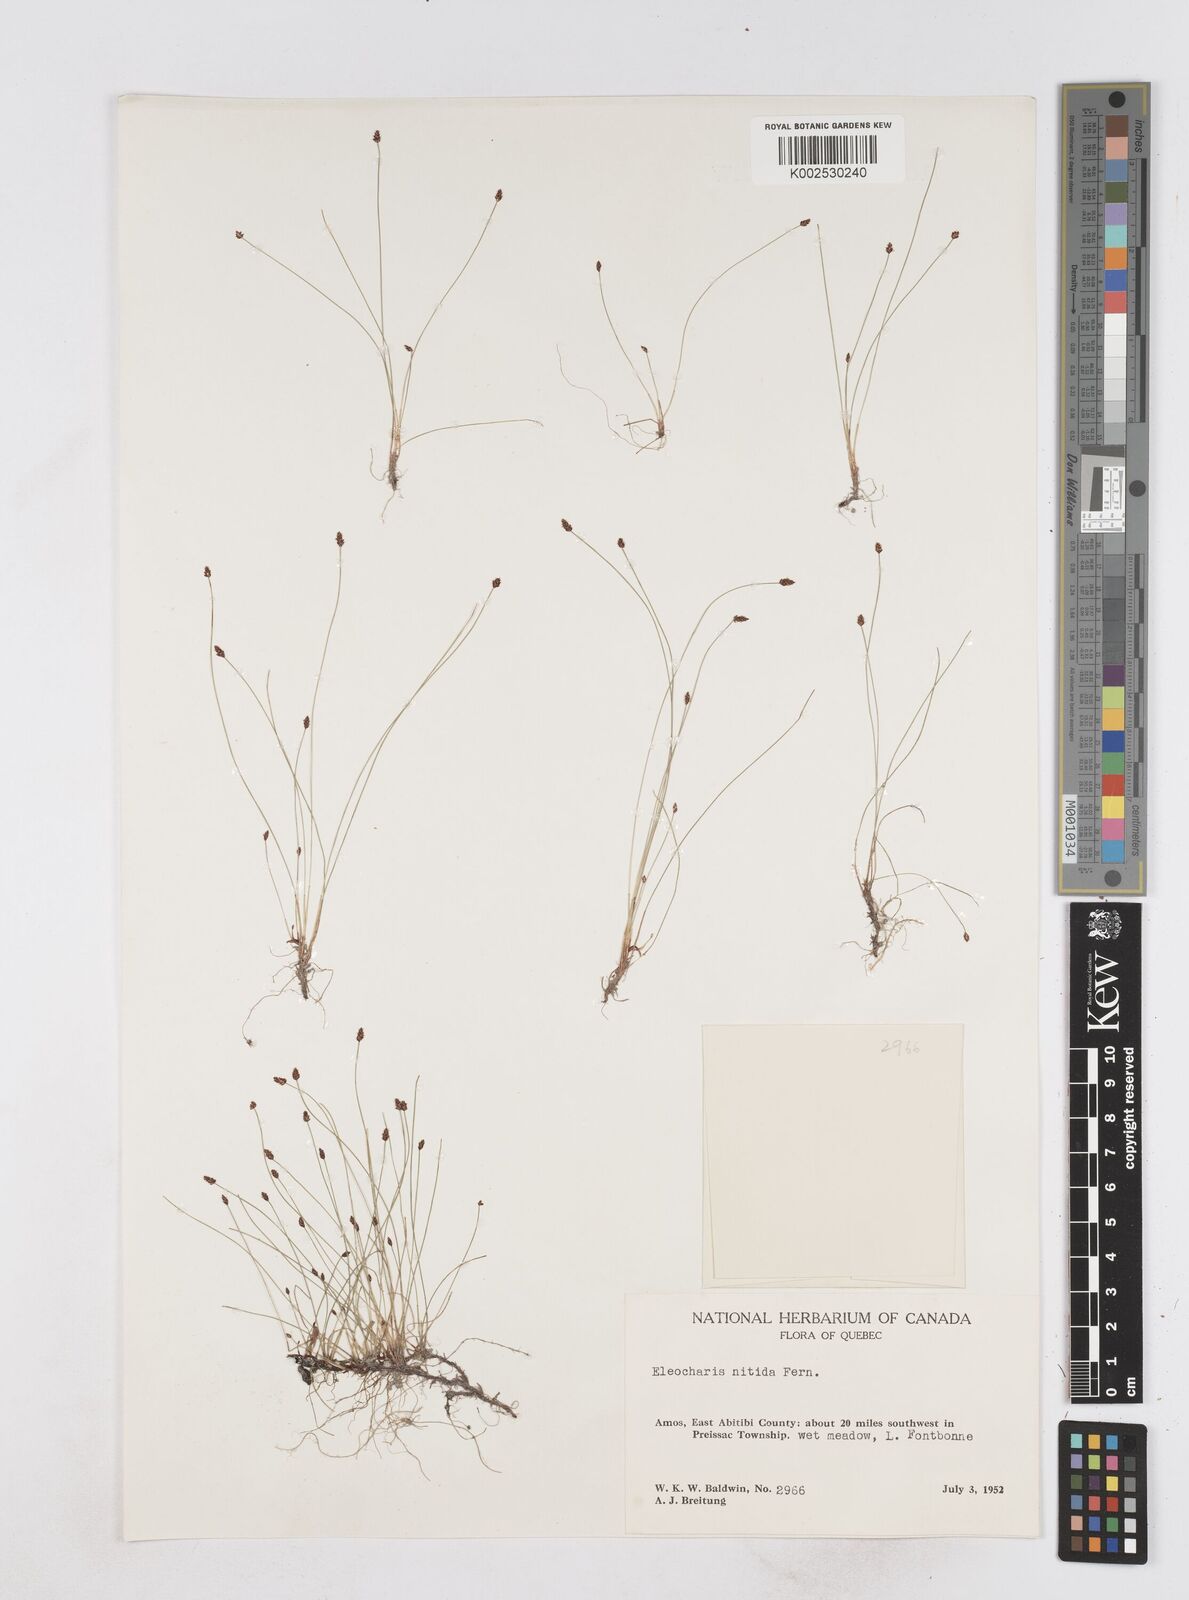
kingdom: Plantae
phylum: Tracheophyta
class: Liliopsida
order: Poales
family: Cyperaceae
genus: Eleocharis
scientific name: Eleocharis nitida
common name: Neat spikerush
